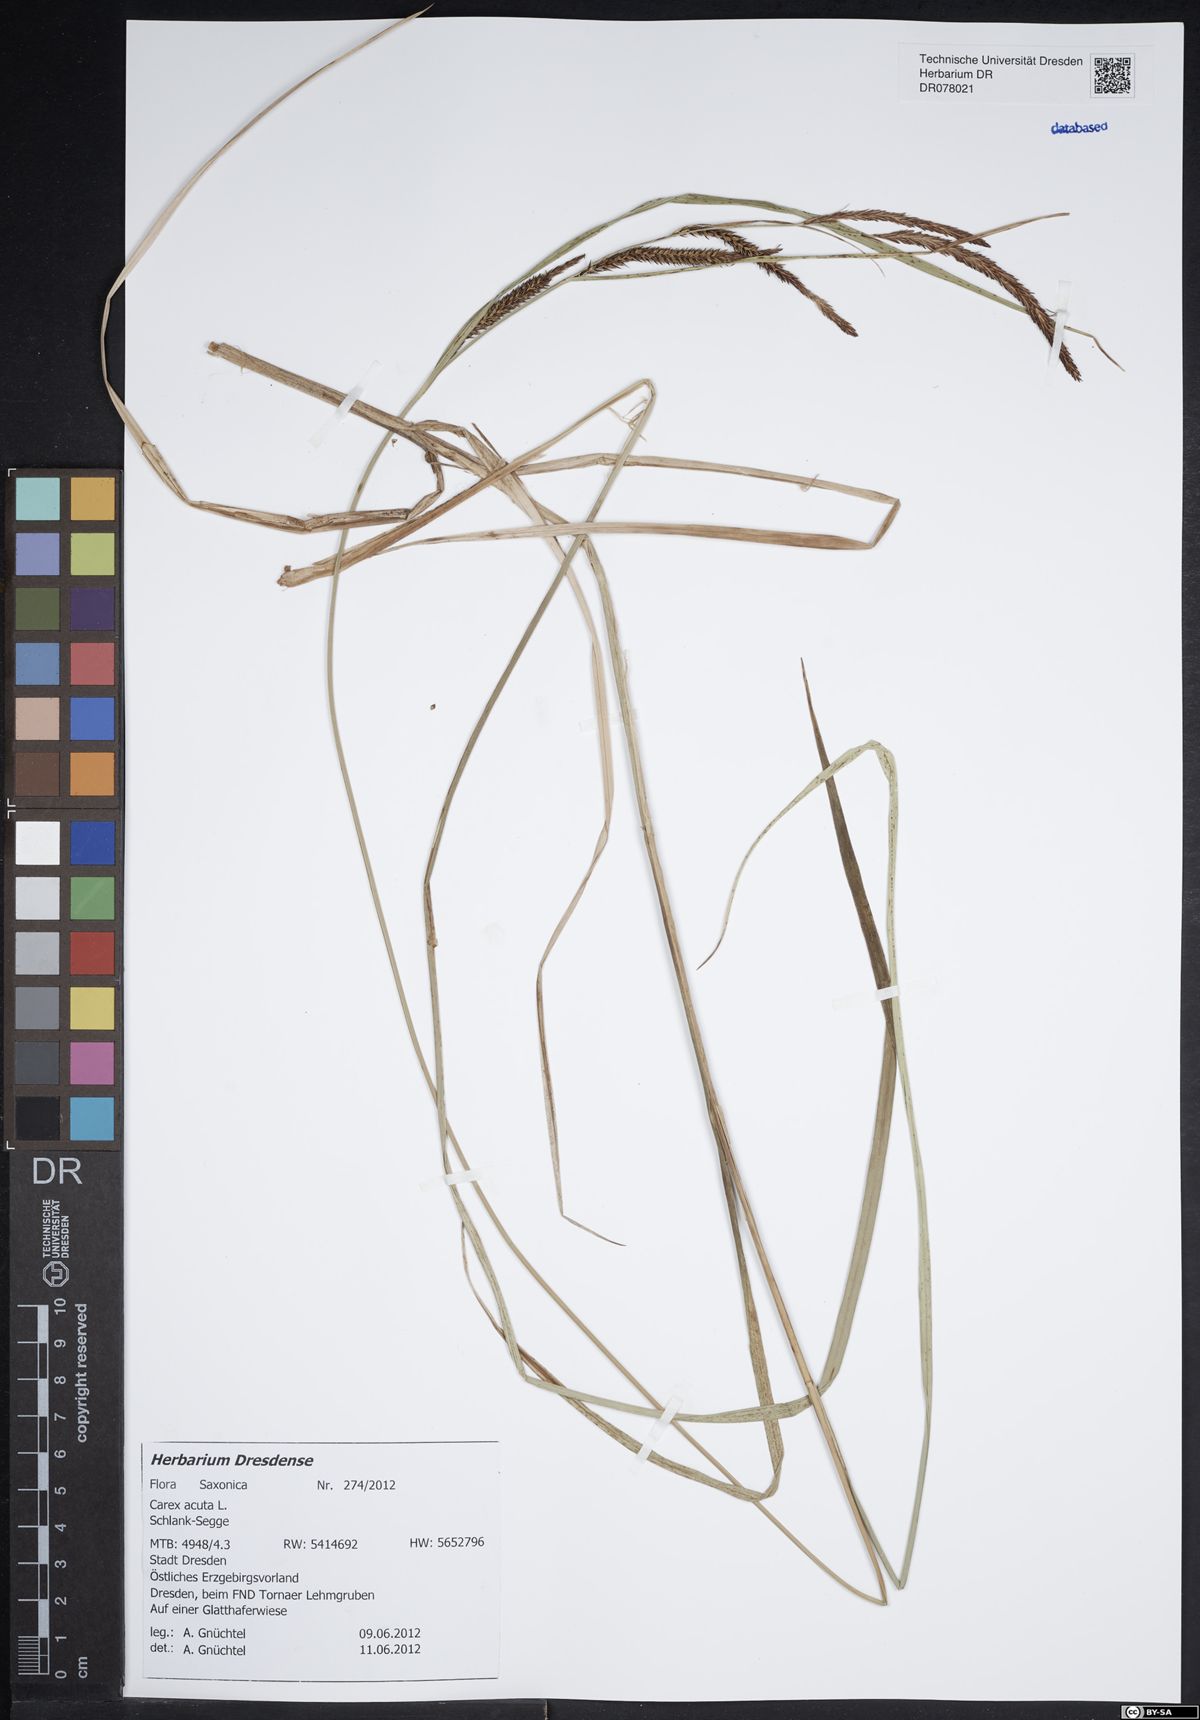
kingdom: Plantae
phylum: Tracheophyta
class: Liliopsida
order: Poales
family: Cyperaceae
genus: Carex
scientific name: Carex acuta
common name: Slender tufted-sedge
